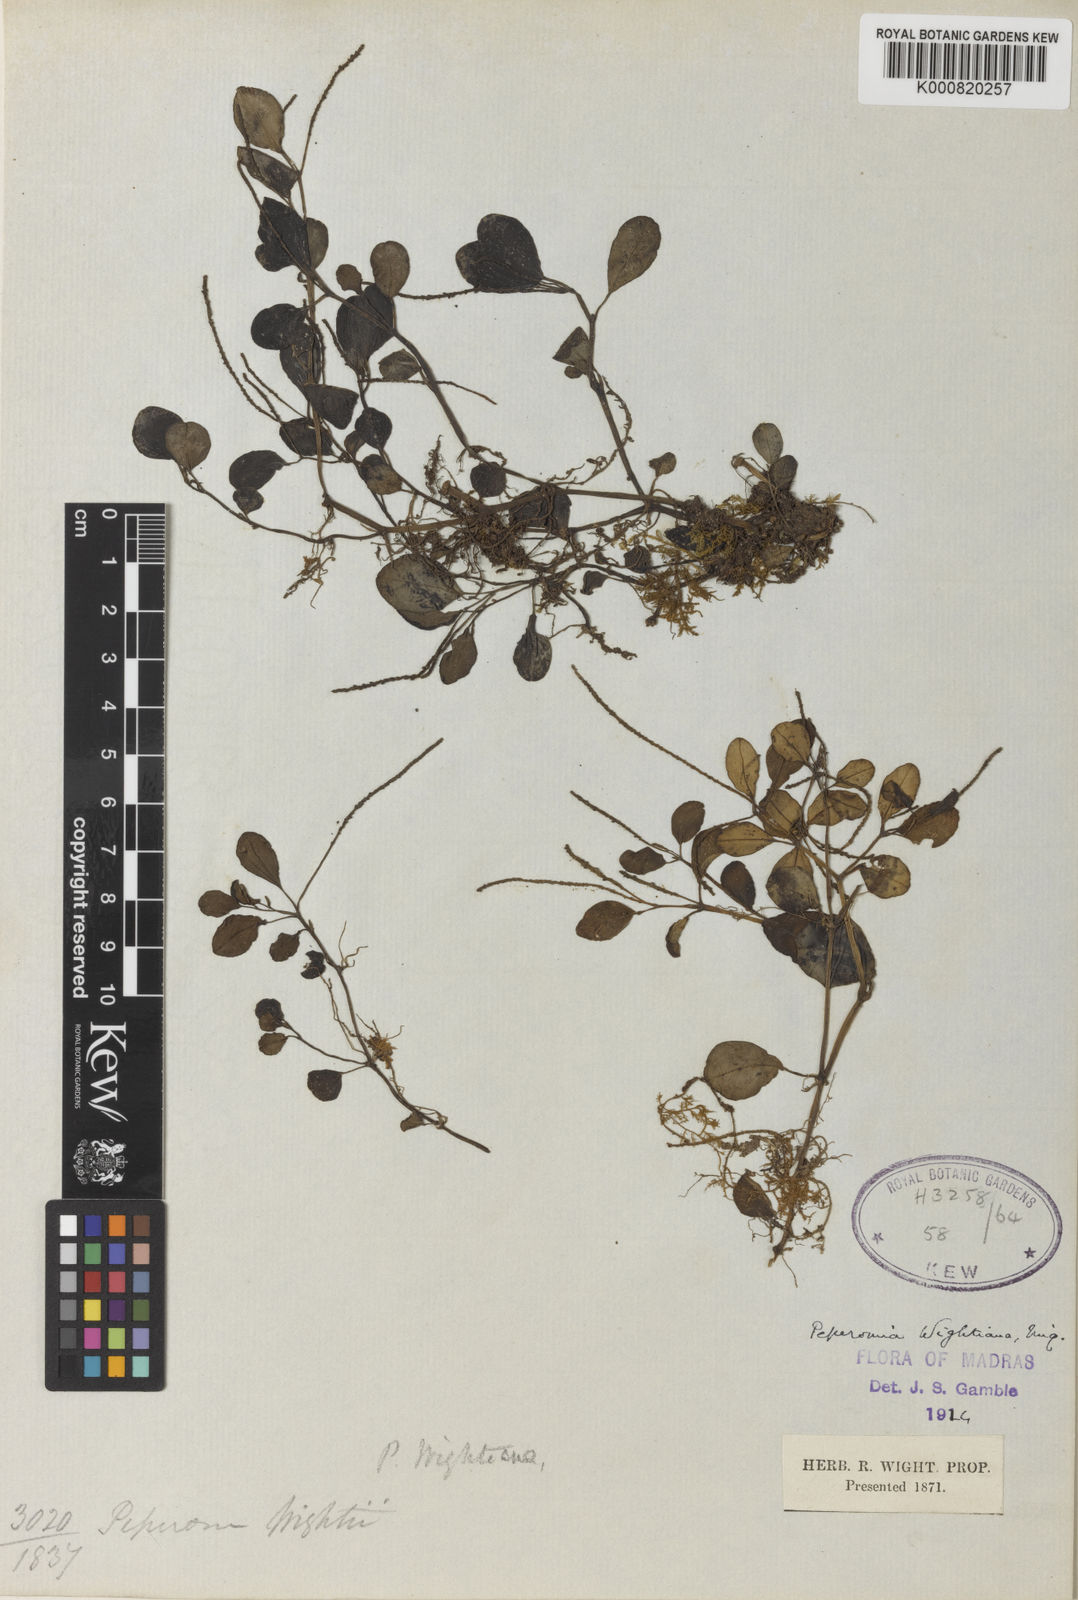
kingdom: Plantae
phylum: Tracheophyta
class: Magnoliopsida
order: Piperales
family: Piperaceae
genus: Peperomia
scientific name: Peperomia wightiana
